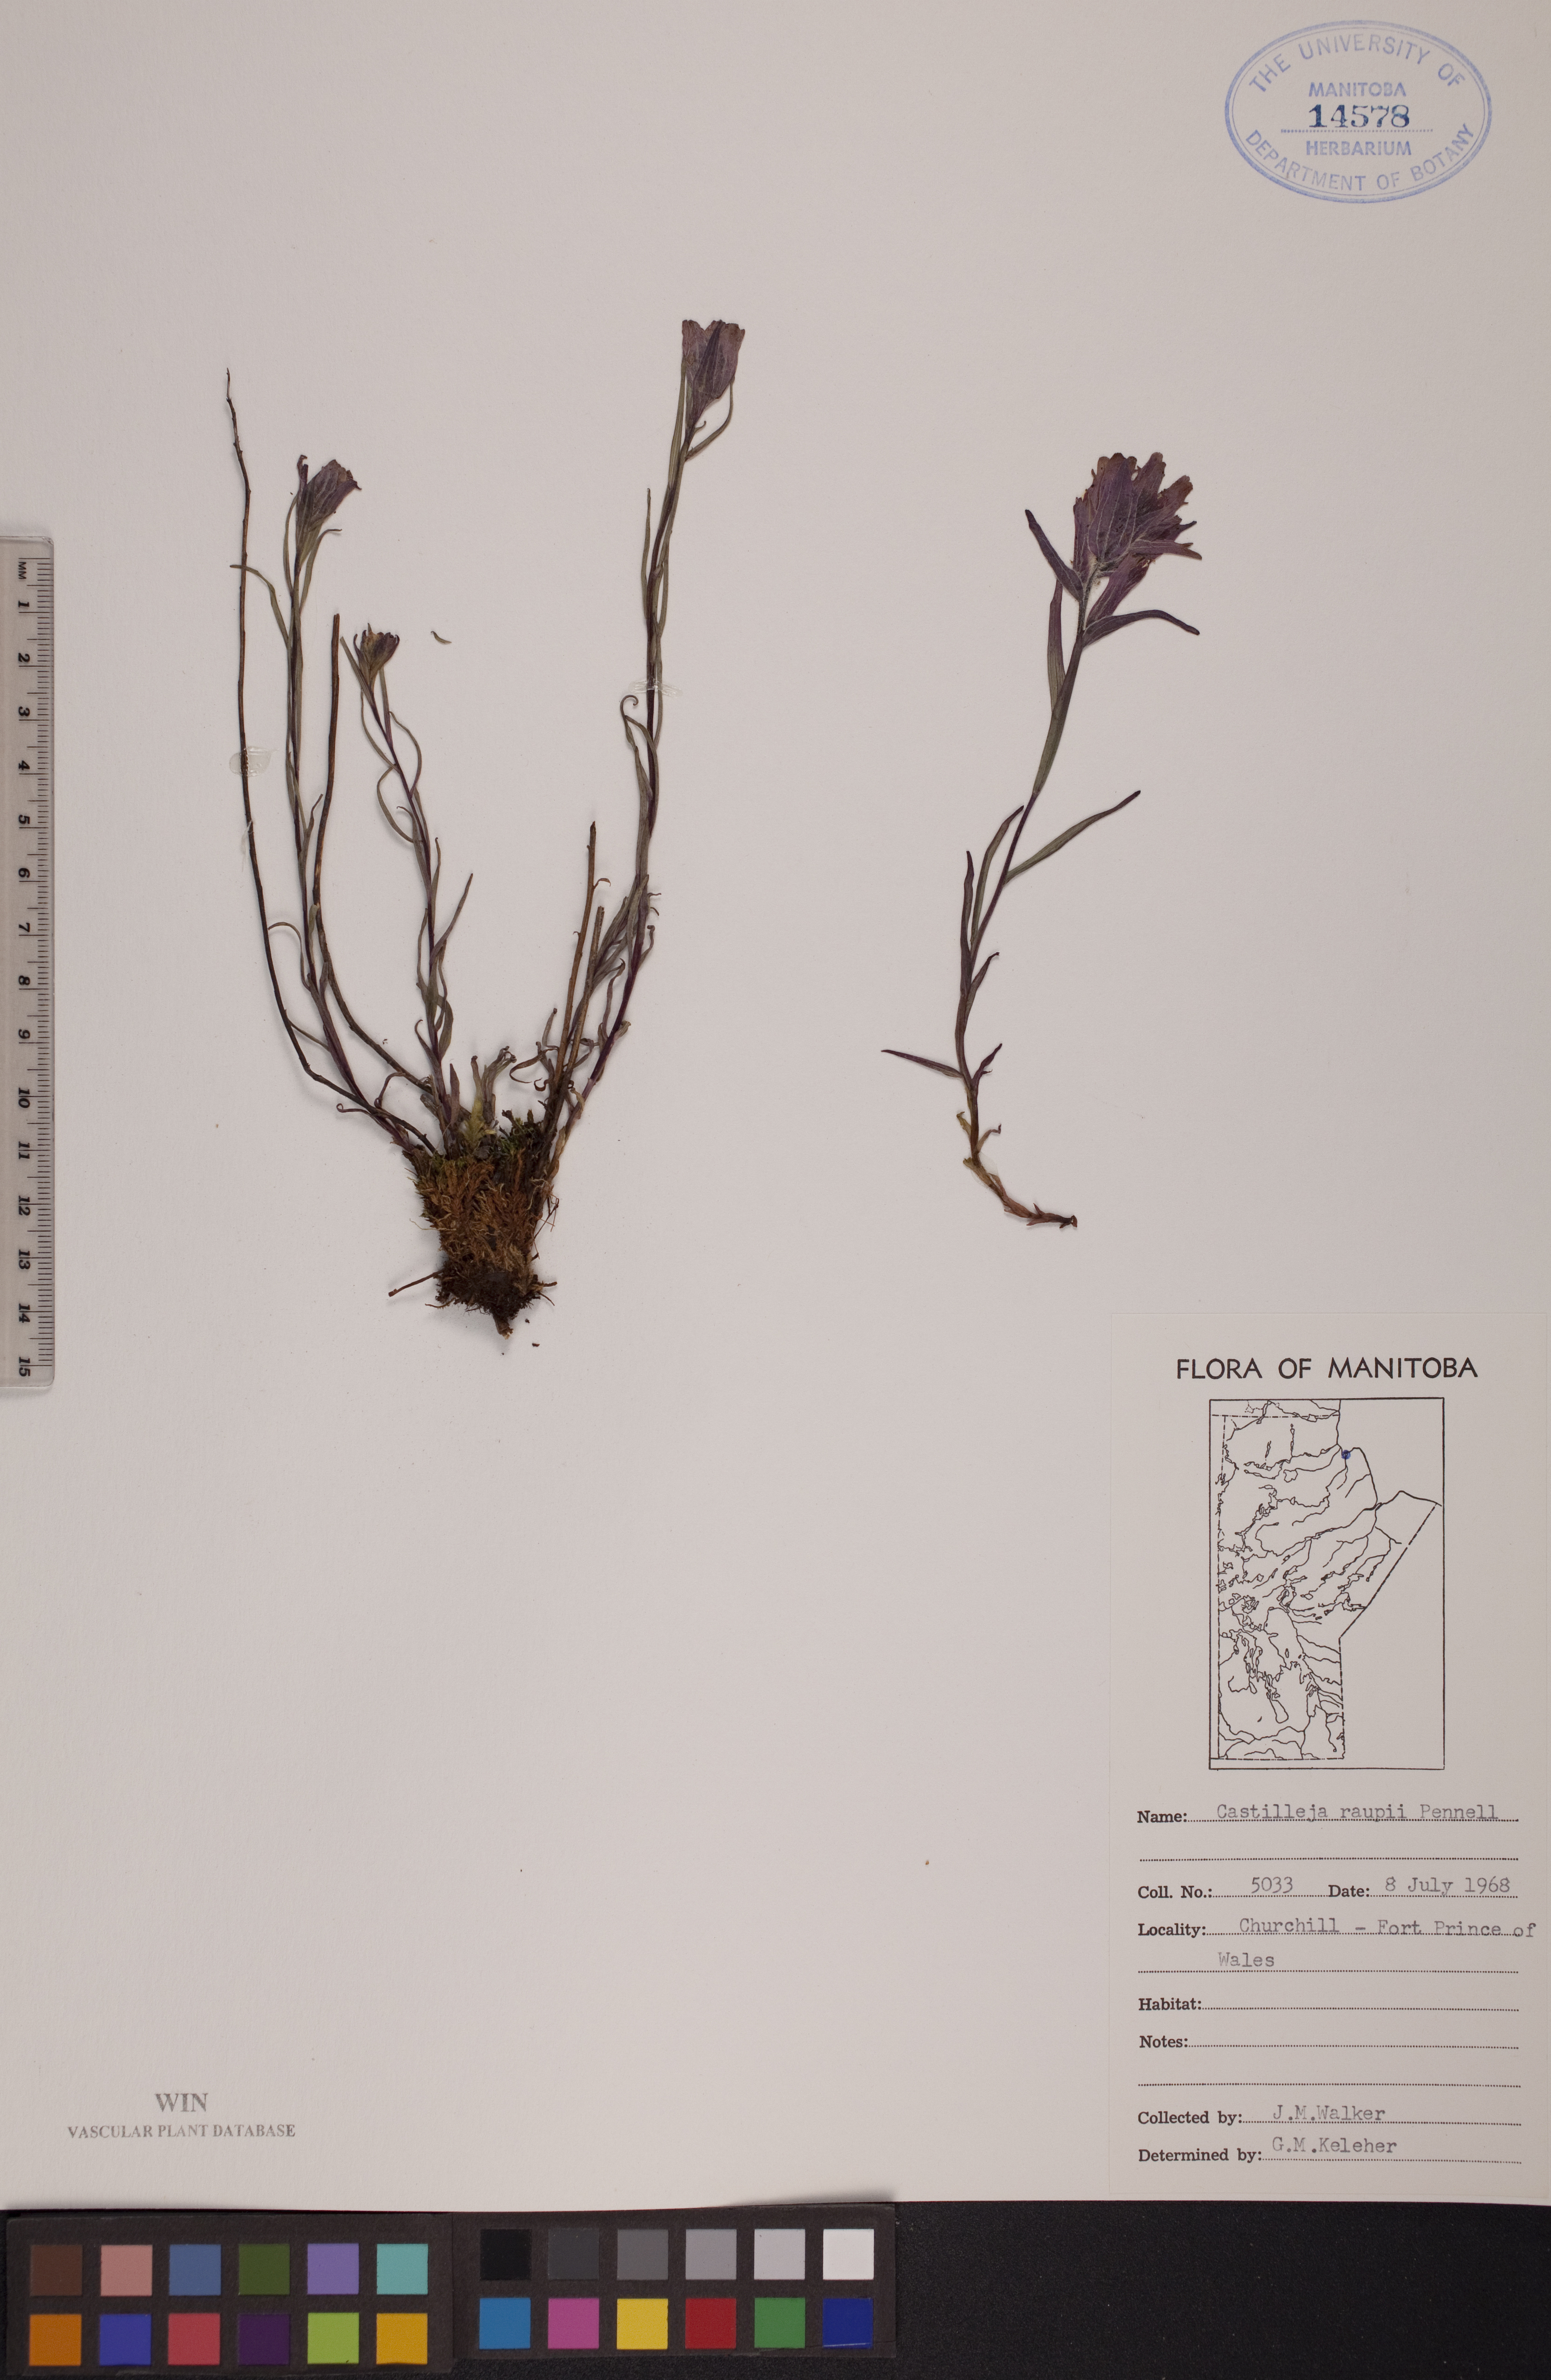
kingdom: Plantae
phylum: Tracheophyta
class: Magnoliopsida
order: Lamiales
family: Orobanchaceae
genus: Castilleja
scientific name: Castilleja raupii
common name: Raup's paintbrush
